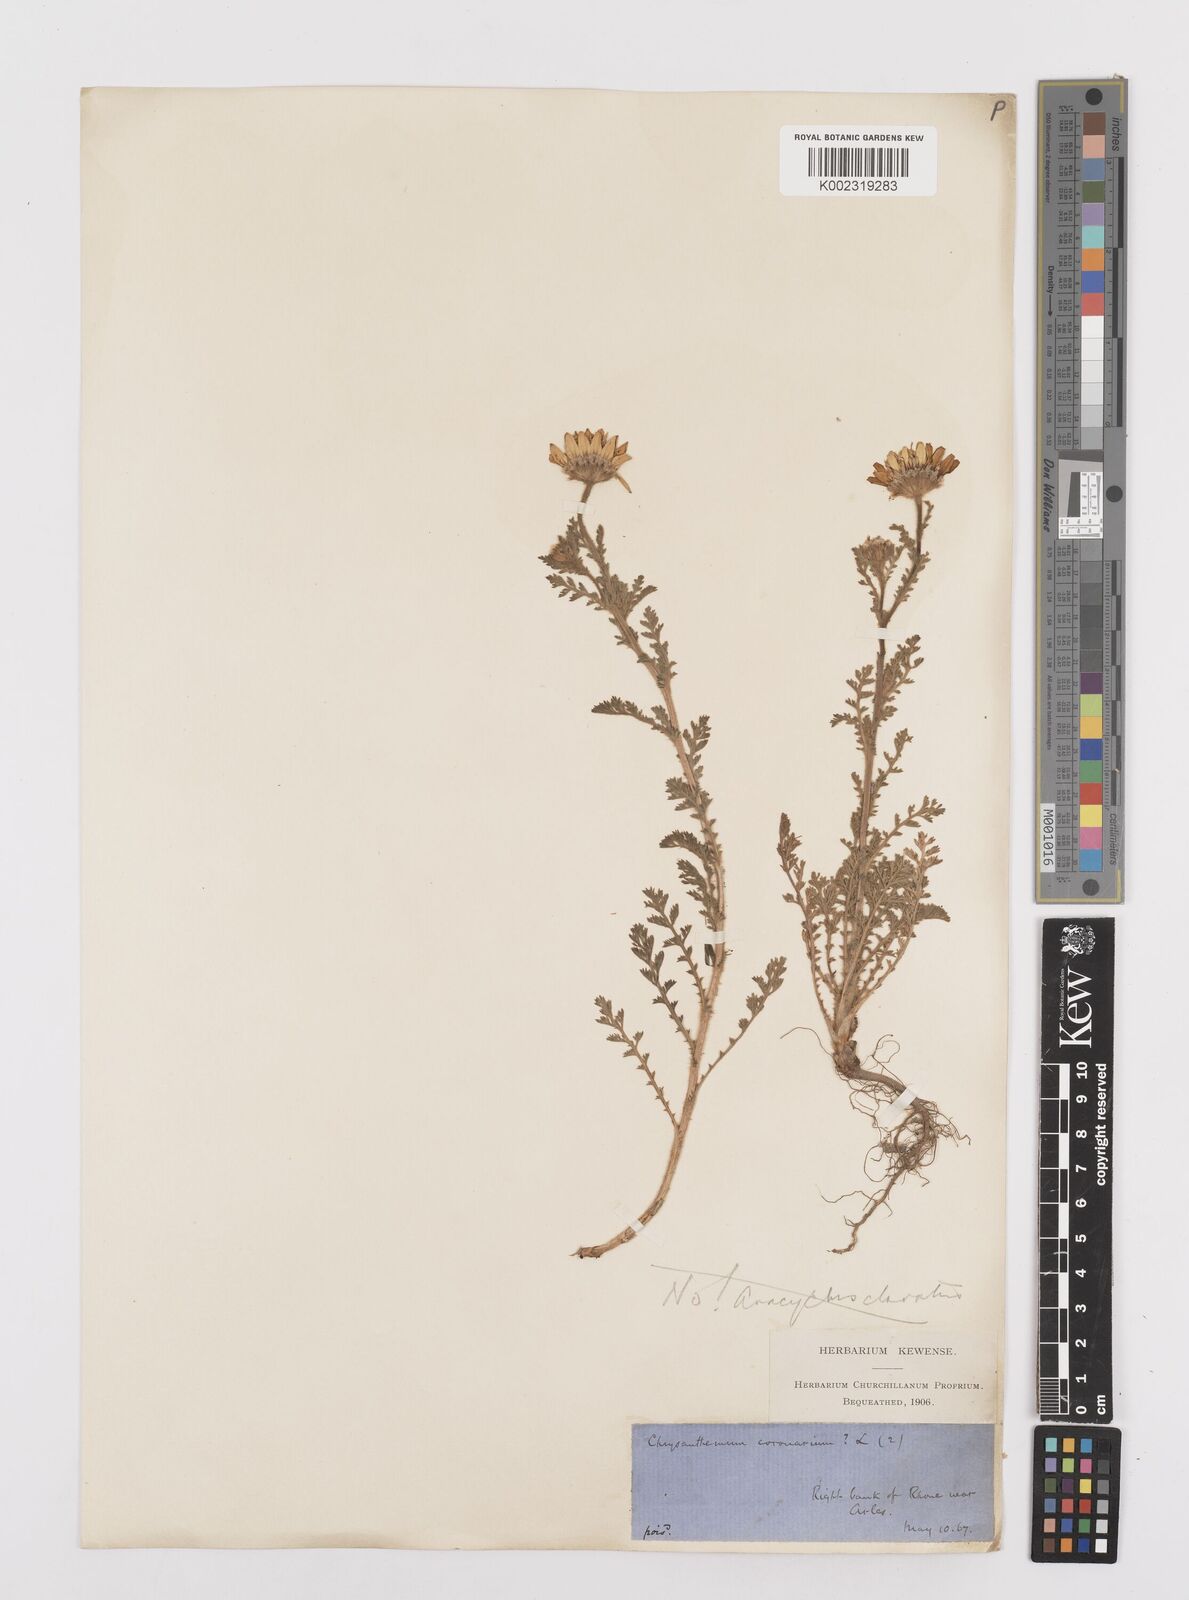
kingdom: Plantae
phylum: Tracheophyta
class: Magnoliopsida
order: Asterales
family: Asteraceae
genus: Anacyclus
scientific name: Anacyclus radiatus
